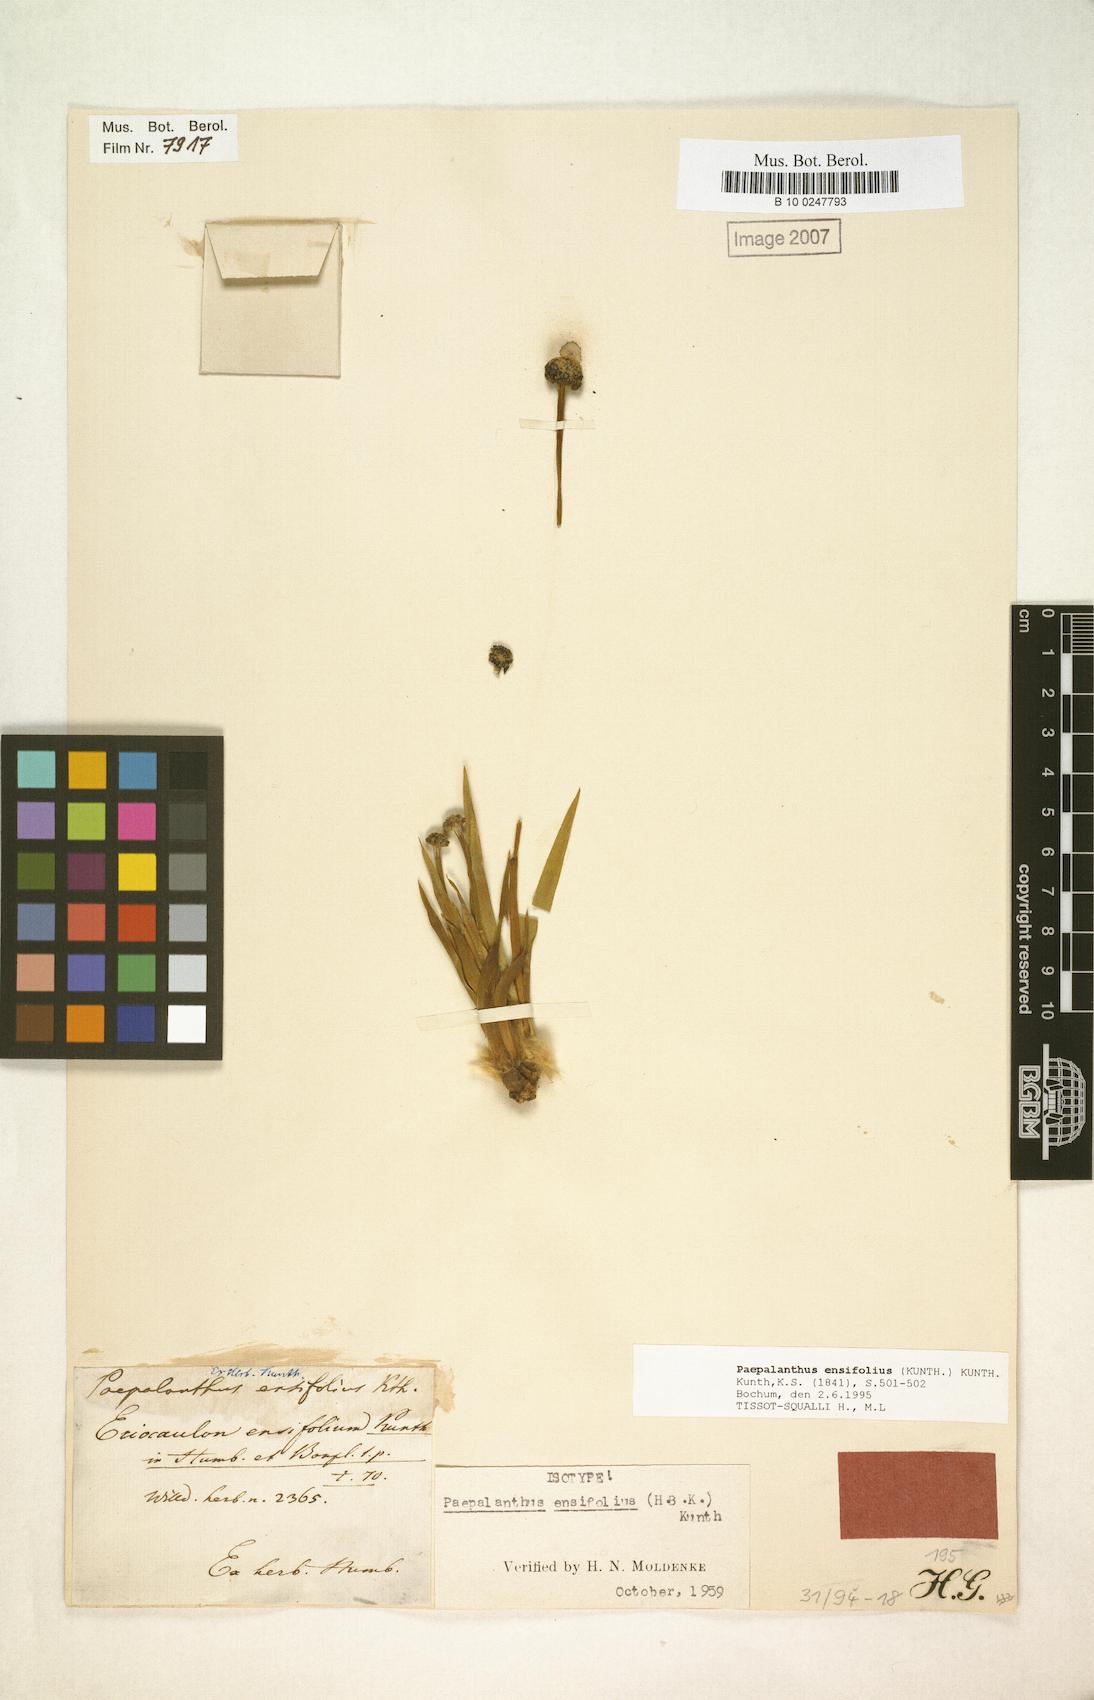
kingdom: Plantae
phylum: Tracheophyta
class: Liliopsida
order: Poales
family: Eriocaulaceae
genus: Paepalanthus
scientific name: Paepalanthus ensifolius
